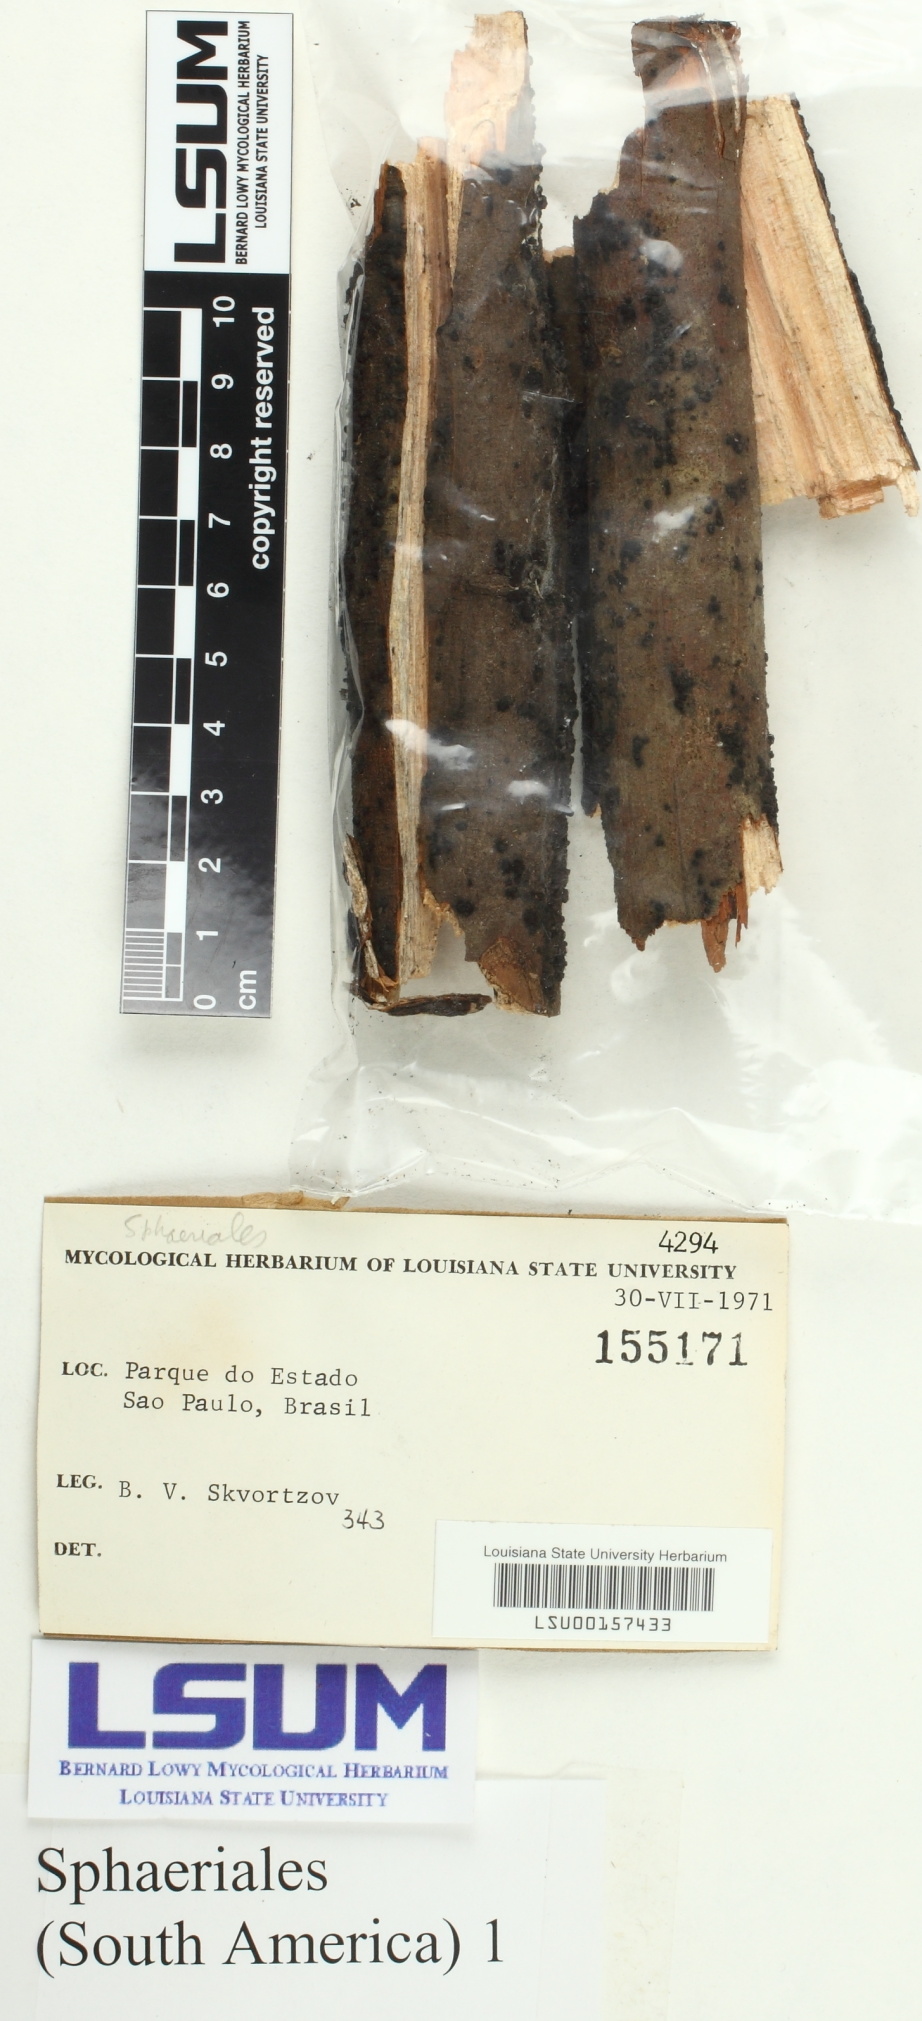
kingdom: Fungi
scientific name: Fungi
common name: Fungi
